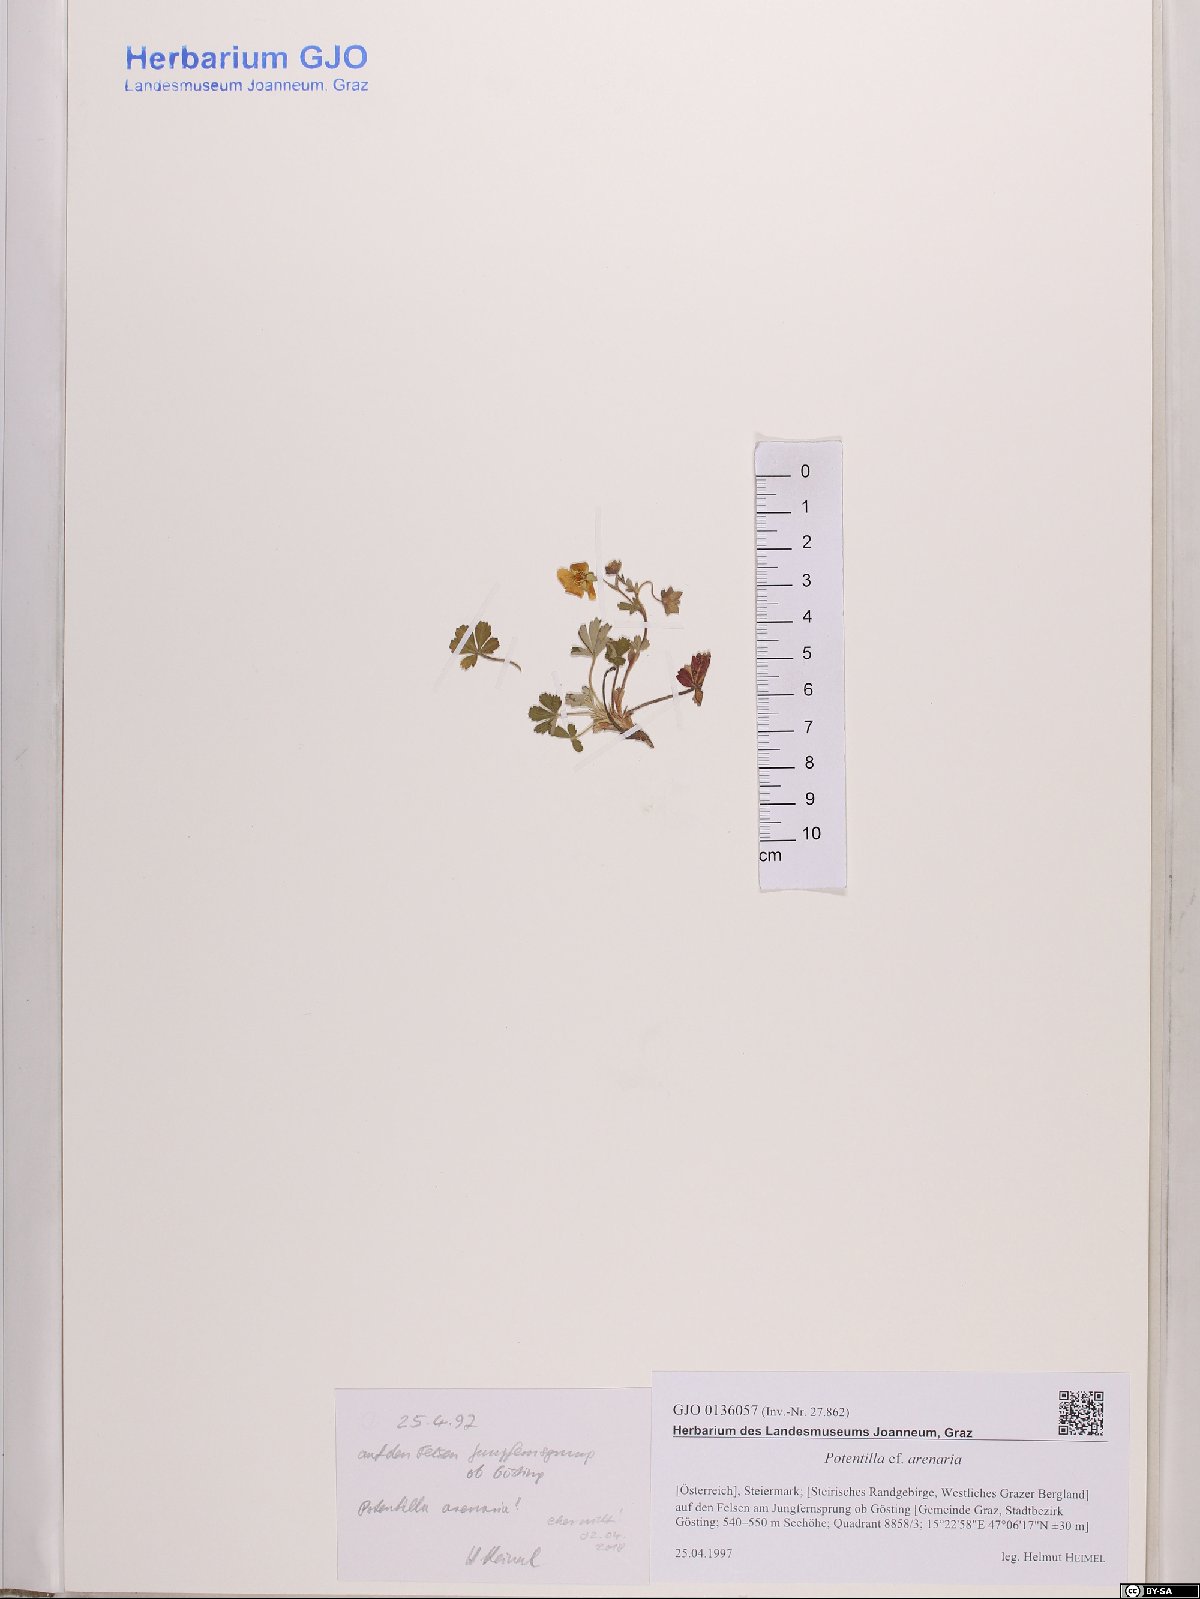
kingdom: Plantae
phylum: Tracheophyta
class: Magnoliopsida
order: Rosales
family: Rosaceae
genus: Potentilla
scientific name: Potentilla cinerea
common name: Ashy cinquefoil
